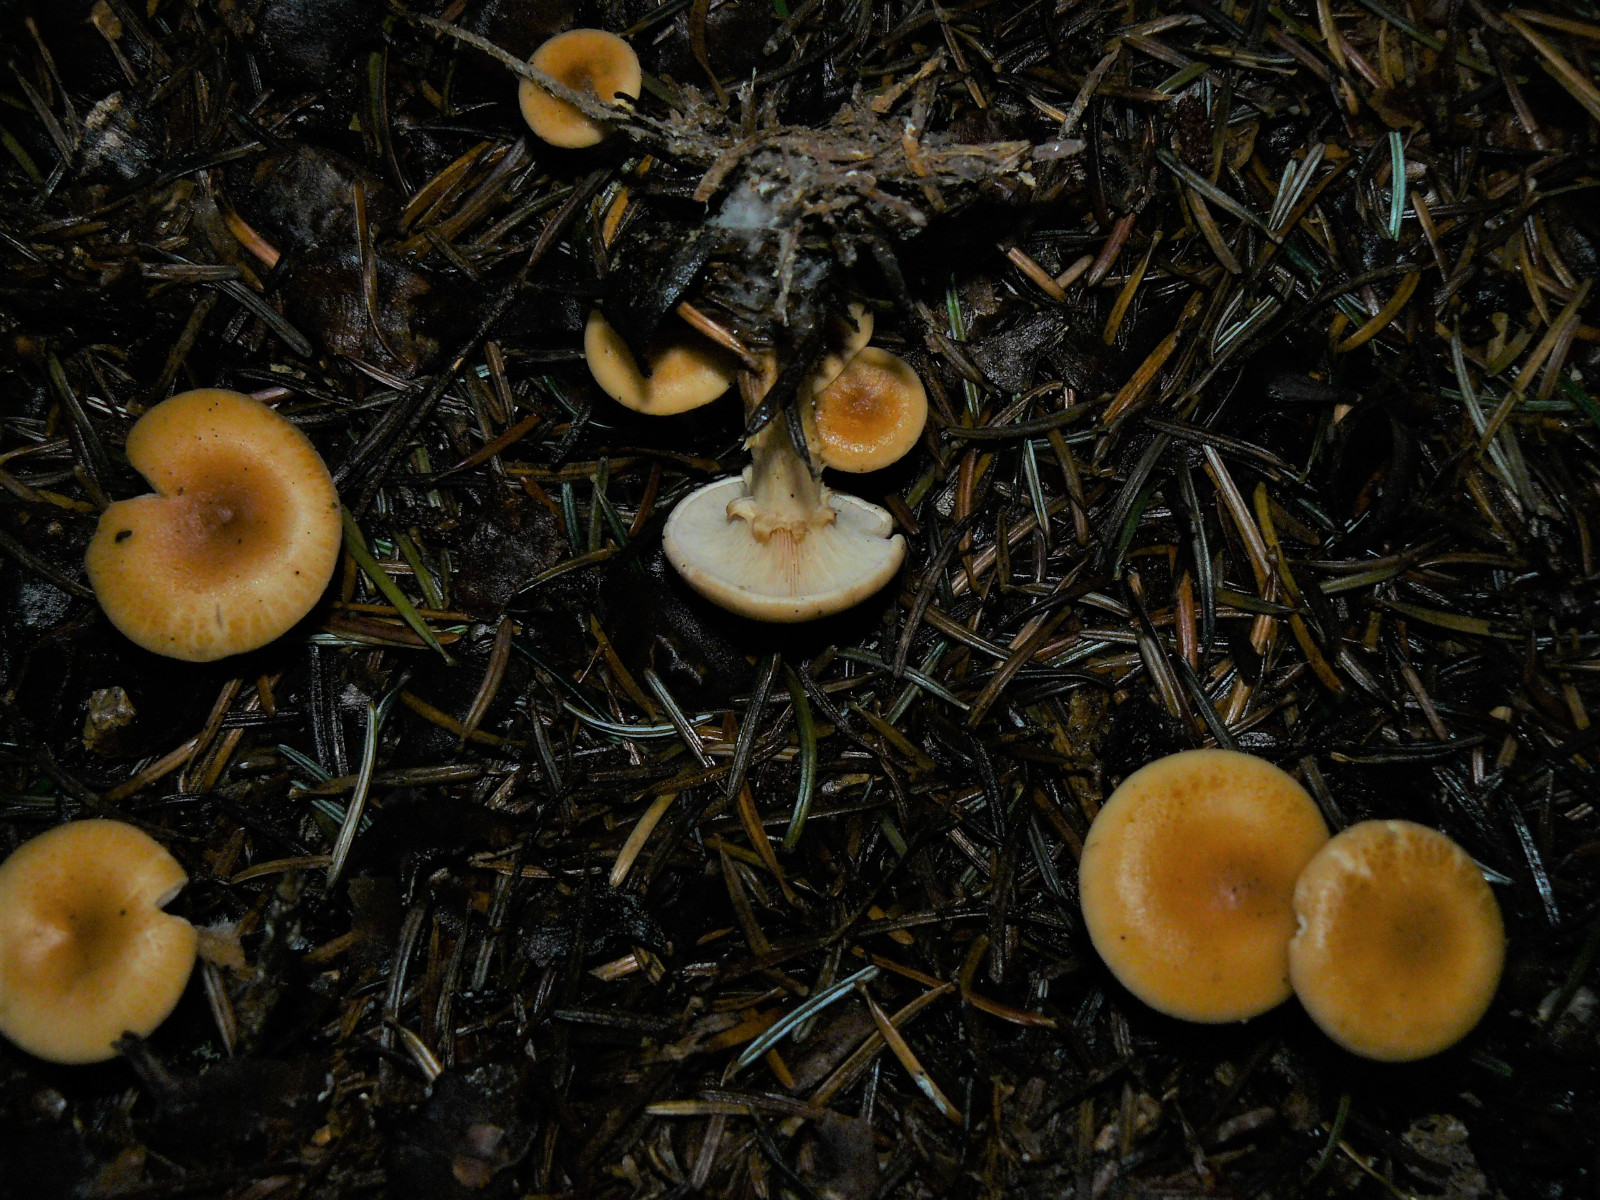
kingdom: Fungi
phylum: Basidiomycota
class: Agaricomycetes
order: Agaricales
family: Tricholomataceae
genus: Paralepista
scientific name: Paralepista flaccida
